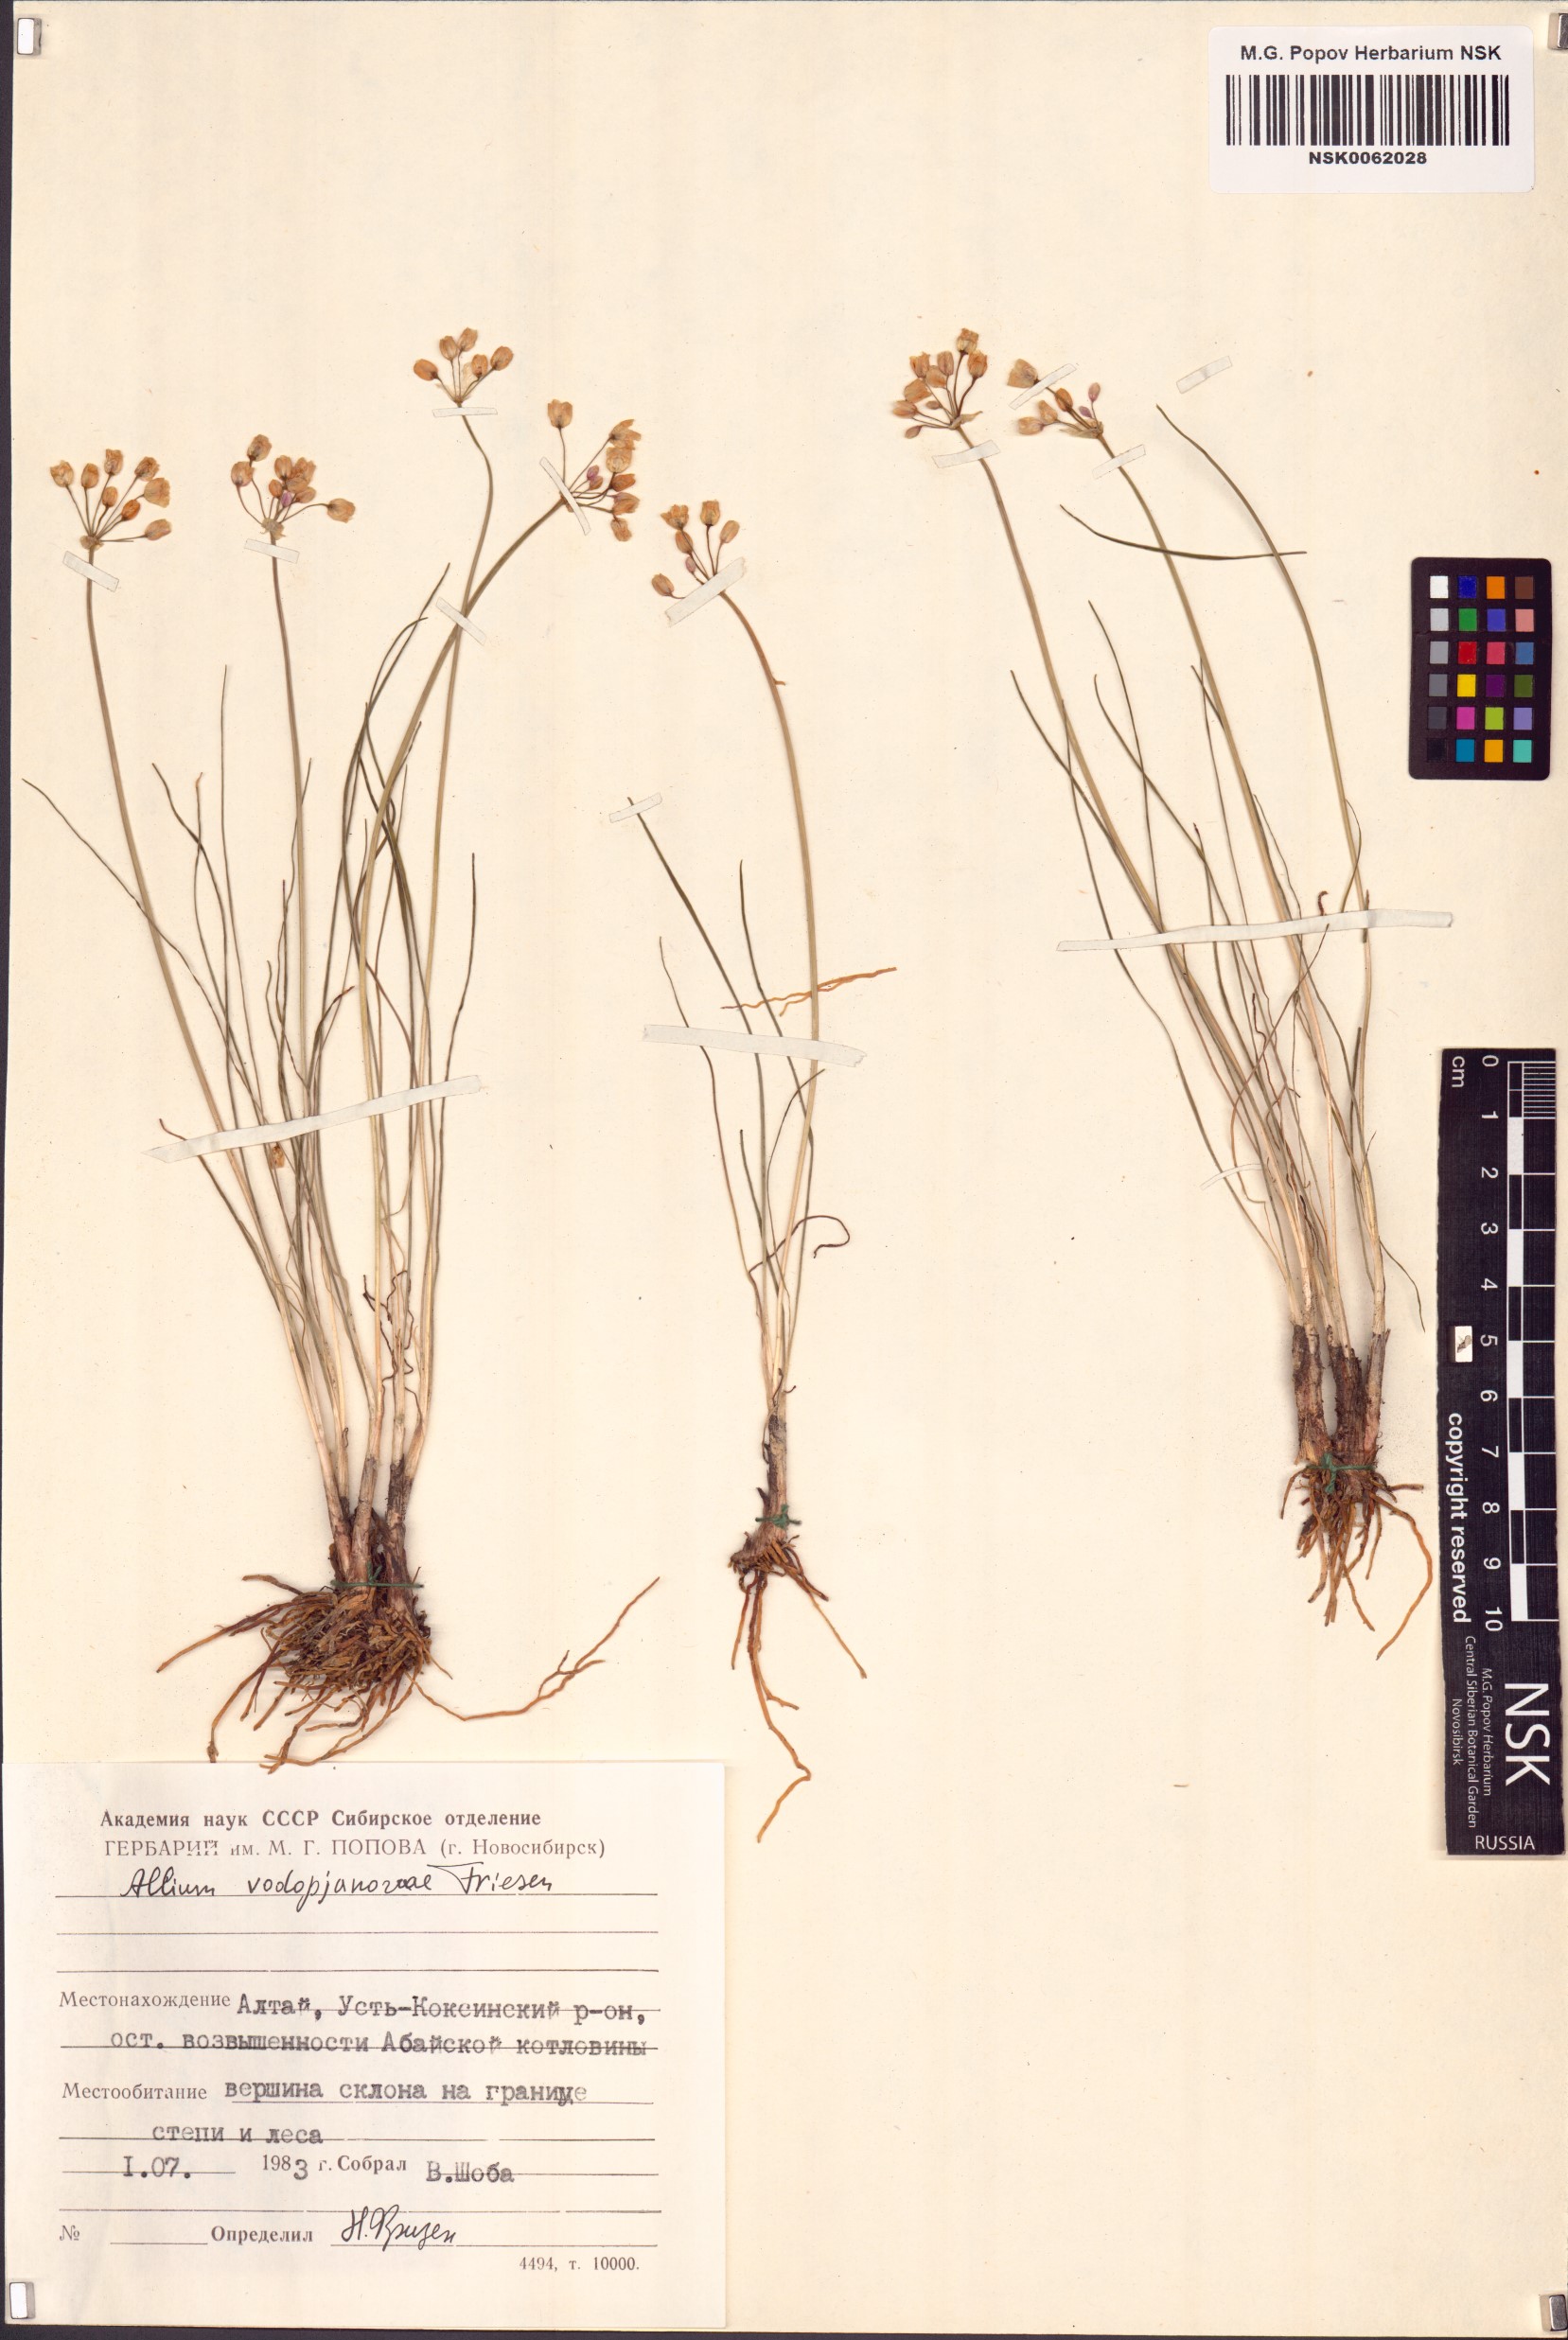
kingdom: Plantae
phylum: Tracheophyta
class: Liliopsida
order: Asparagales
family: Amaryllidaceae
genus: Allium
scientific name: Allium vodopjanovae
